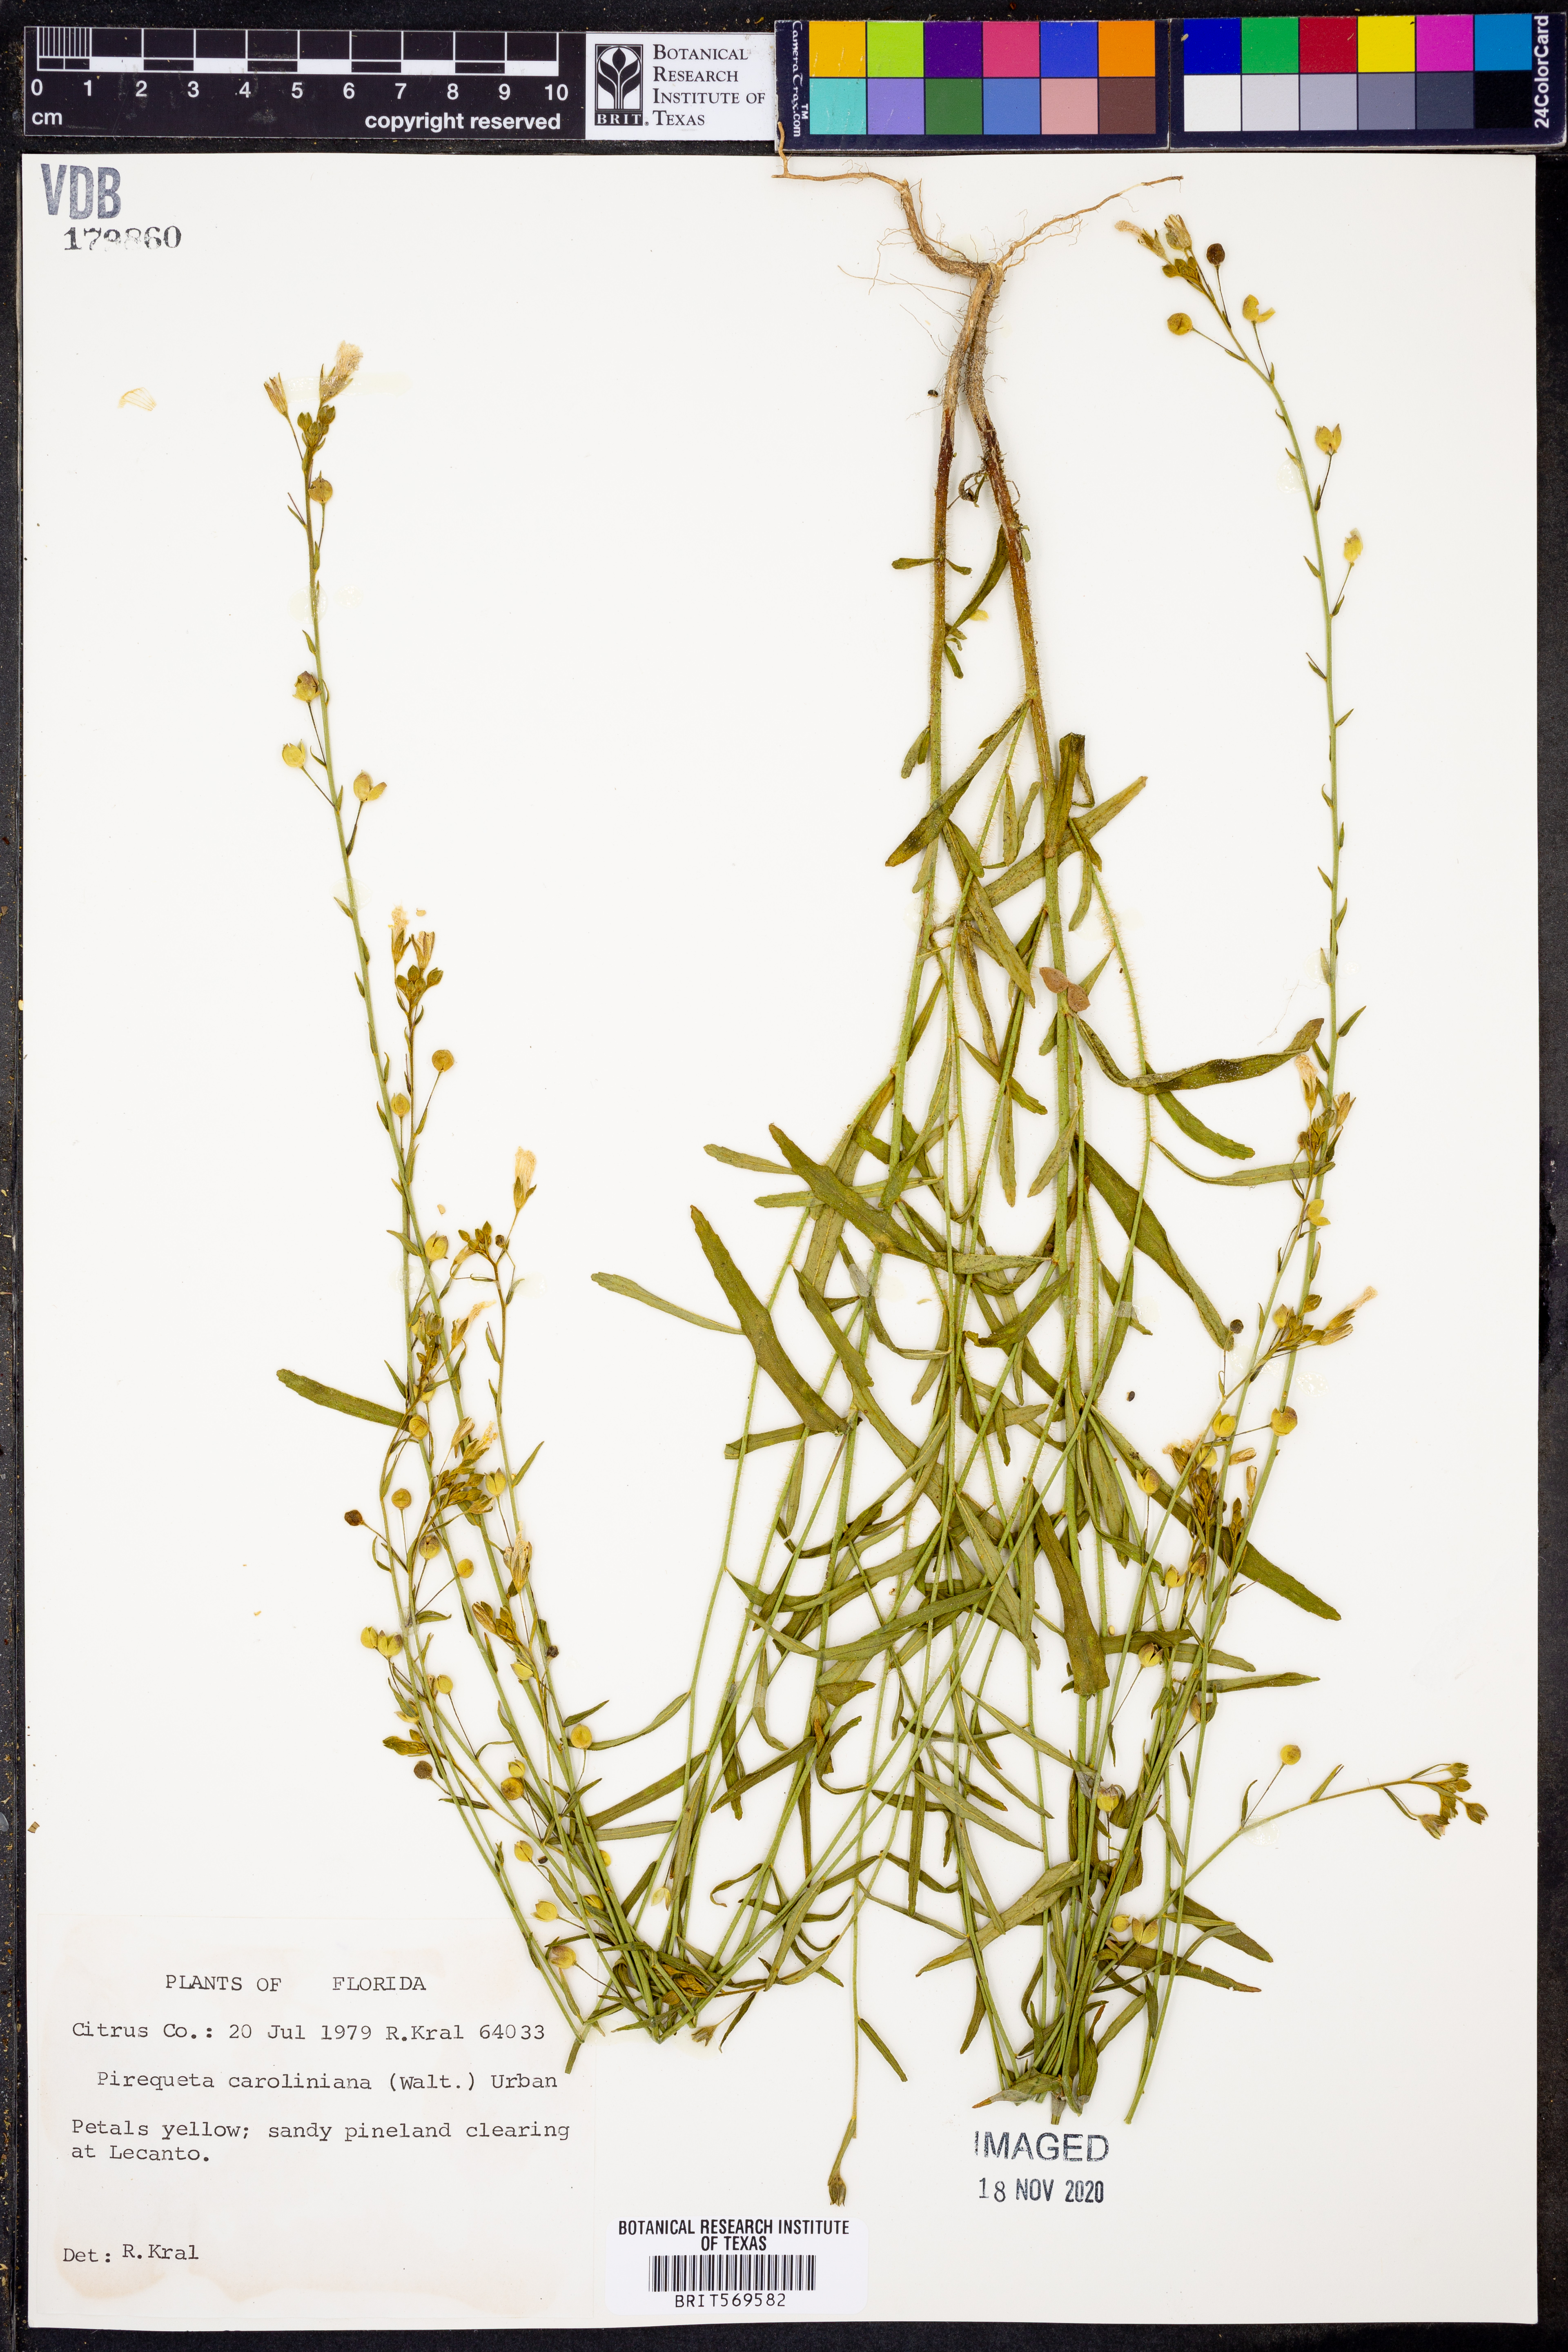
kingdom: Plantae
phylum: Tracheophyta
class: Magnoliopsida
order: Malpighiales
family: Turneraceae
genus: Piriqueta
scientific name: Piriqueta cistoides
